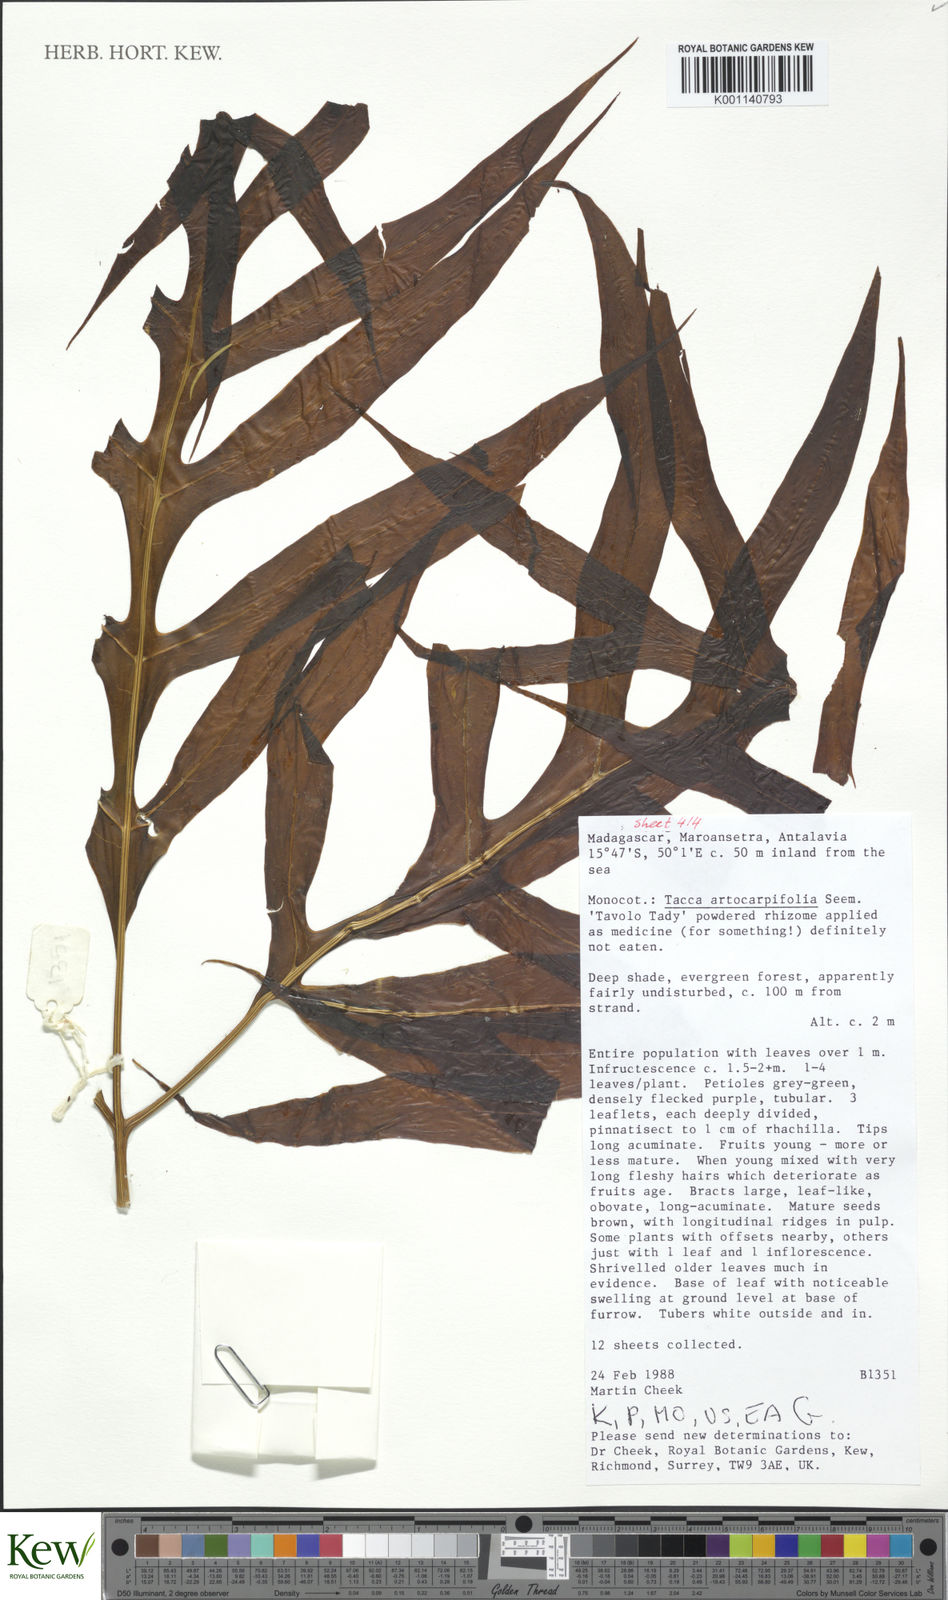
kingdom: Plantae
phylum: Tracheophyta
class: Liliopsida
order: Dioscoreales
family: Dioscoreaceae
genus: Tacca
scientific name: Tacca leontopetaloides
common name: Arrowroot
